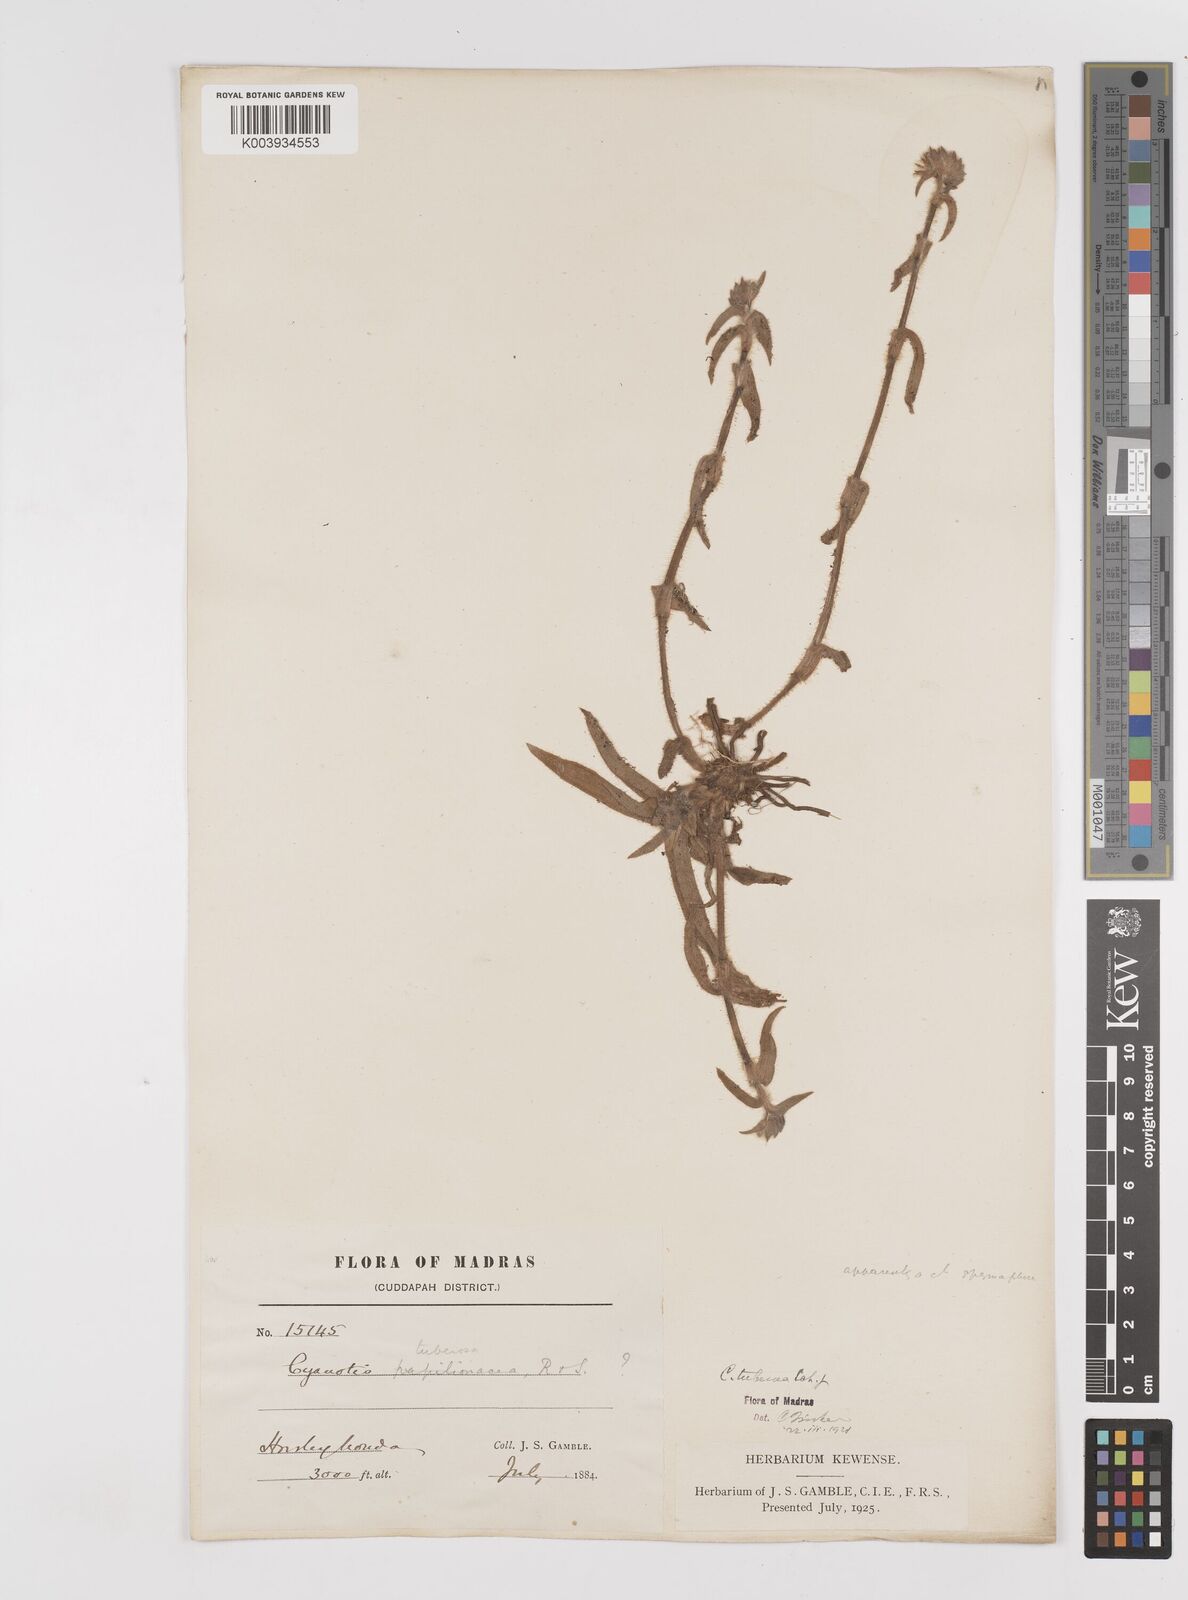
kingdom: Plantae
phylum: Tracheophyta
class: Liliopsida
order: Commelinales
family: Commelinaceae
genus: Cyanotis
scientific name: Cyanotis tuberosa
